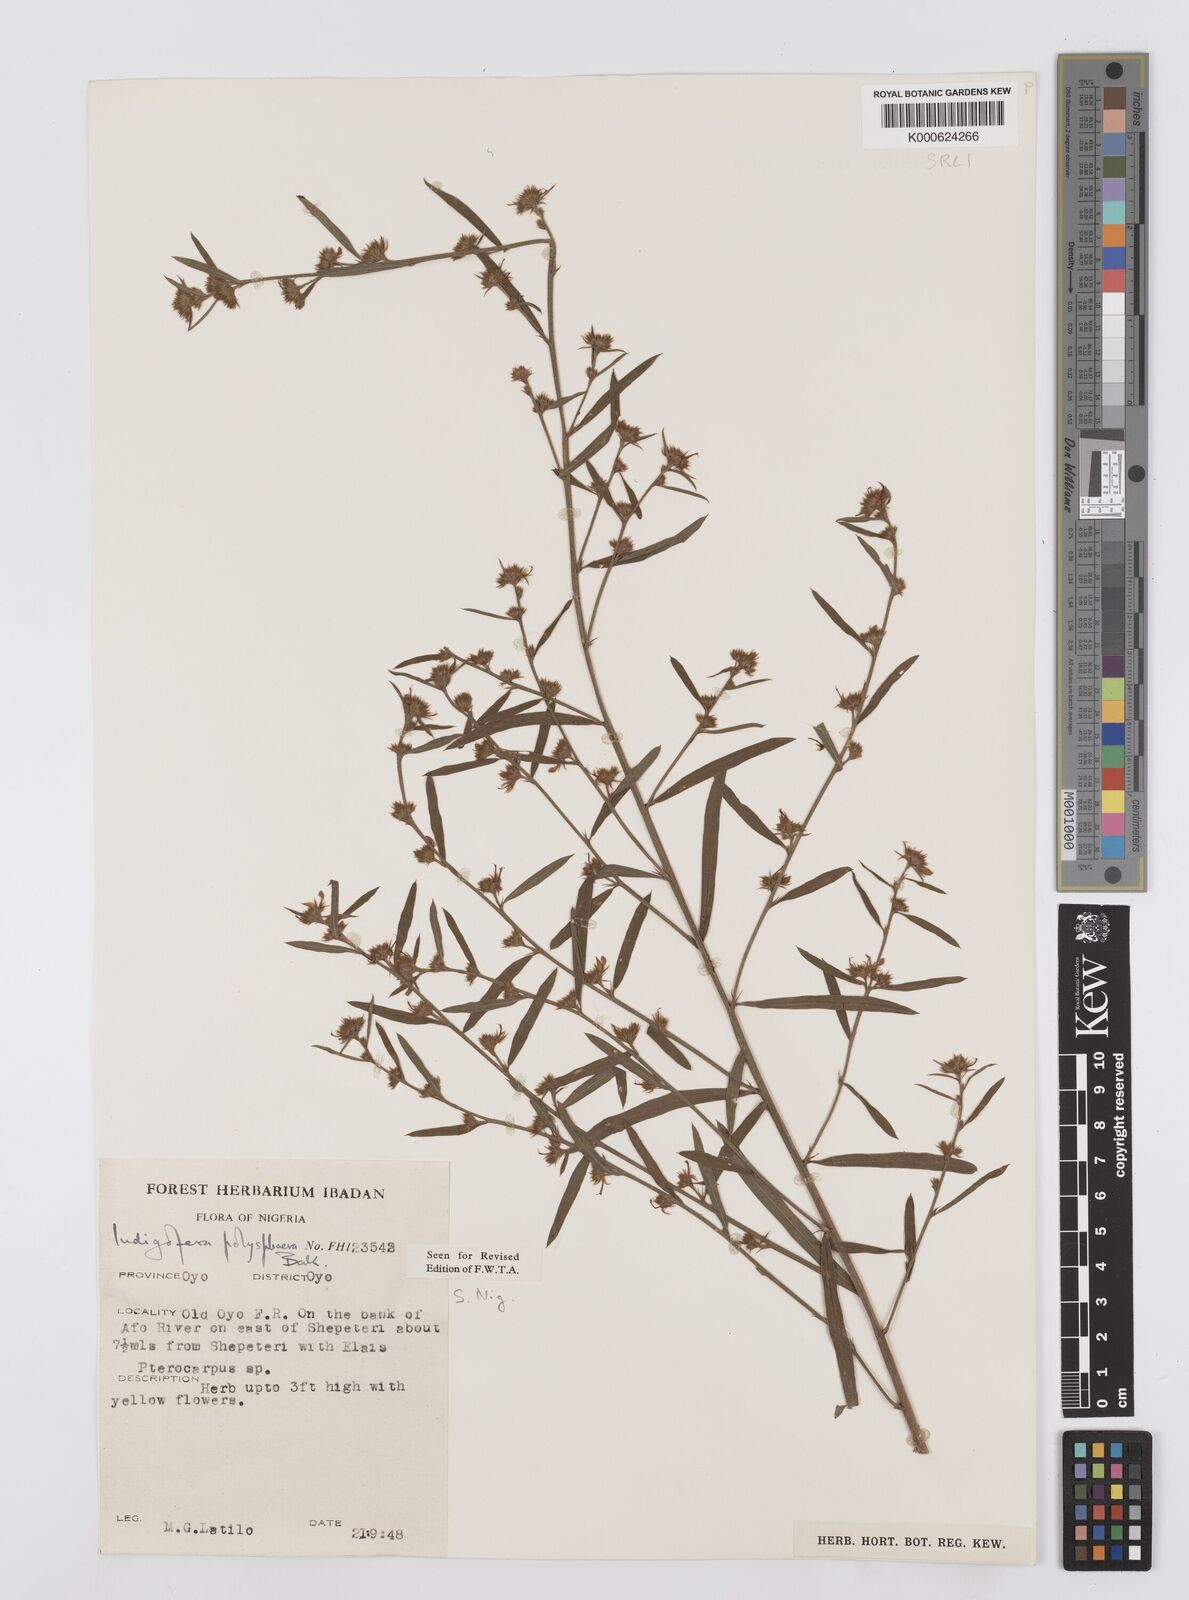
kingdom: Plantae
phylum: Tracheophyta
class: Magnoliopsida
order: Fabales
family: Fabaceae
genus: Indigofera
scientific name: Indigofera polysphaera
